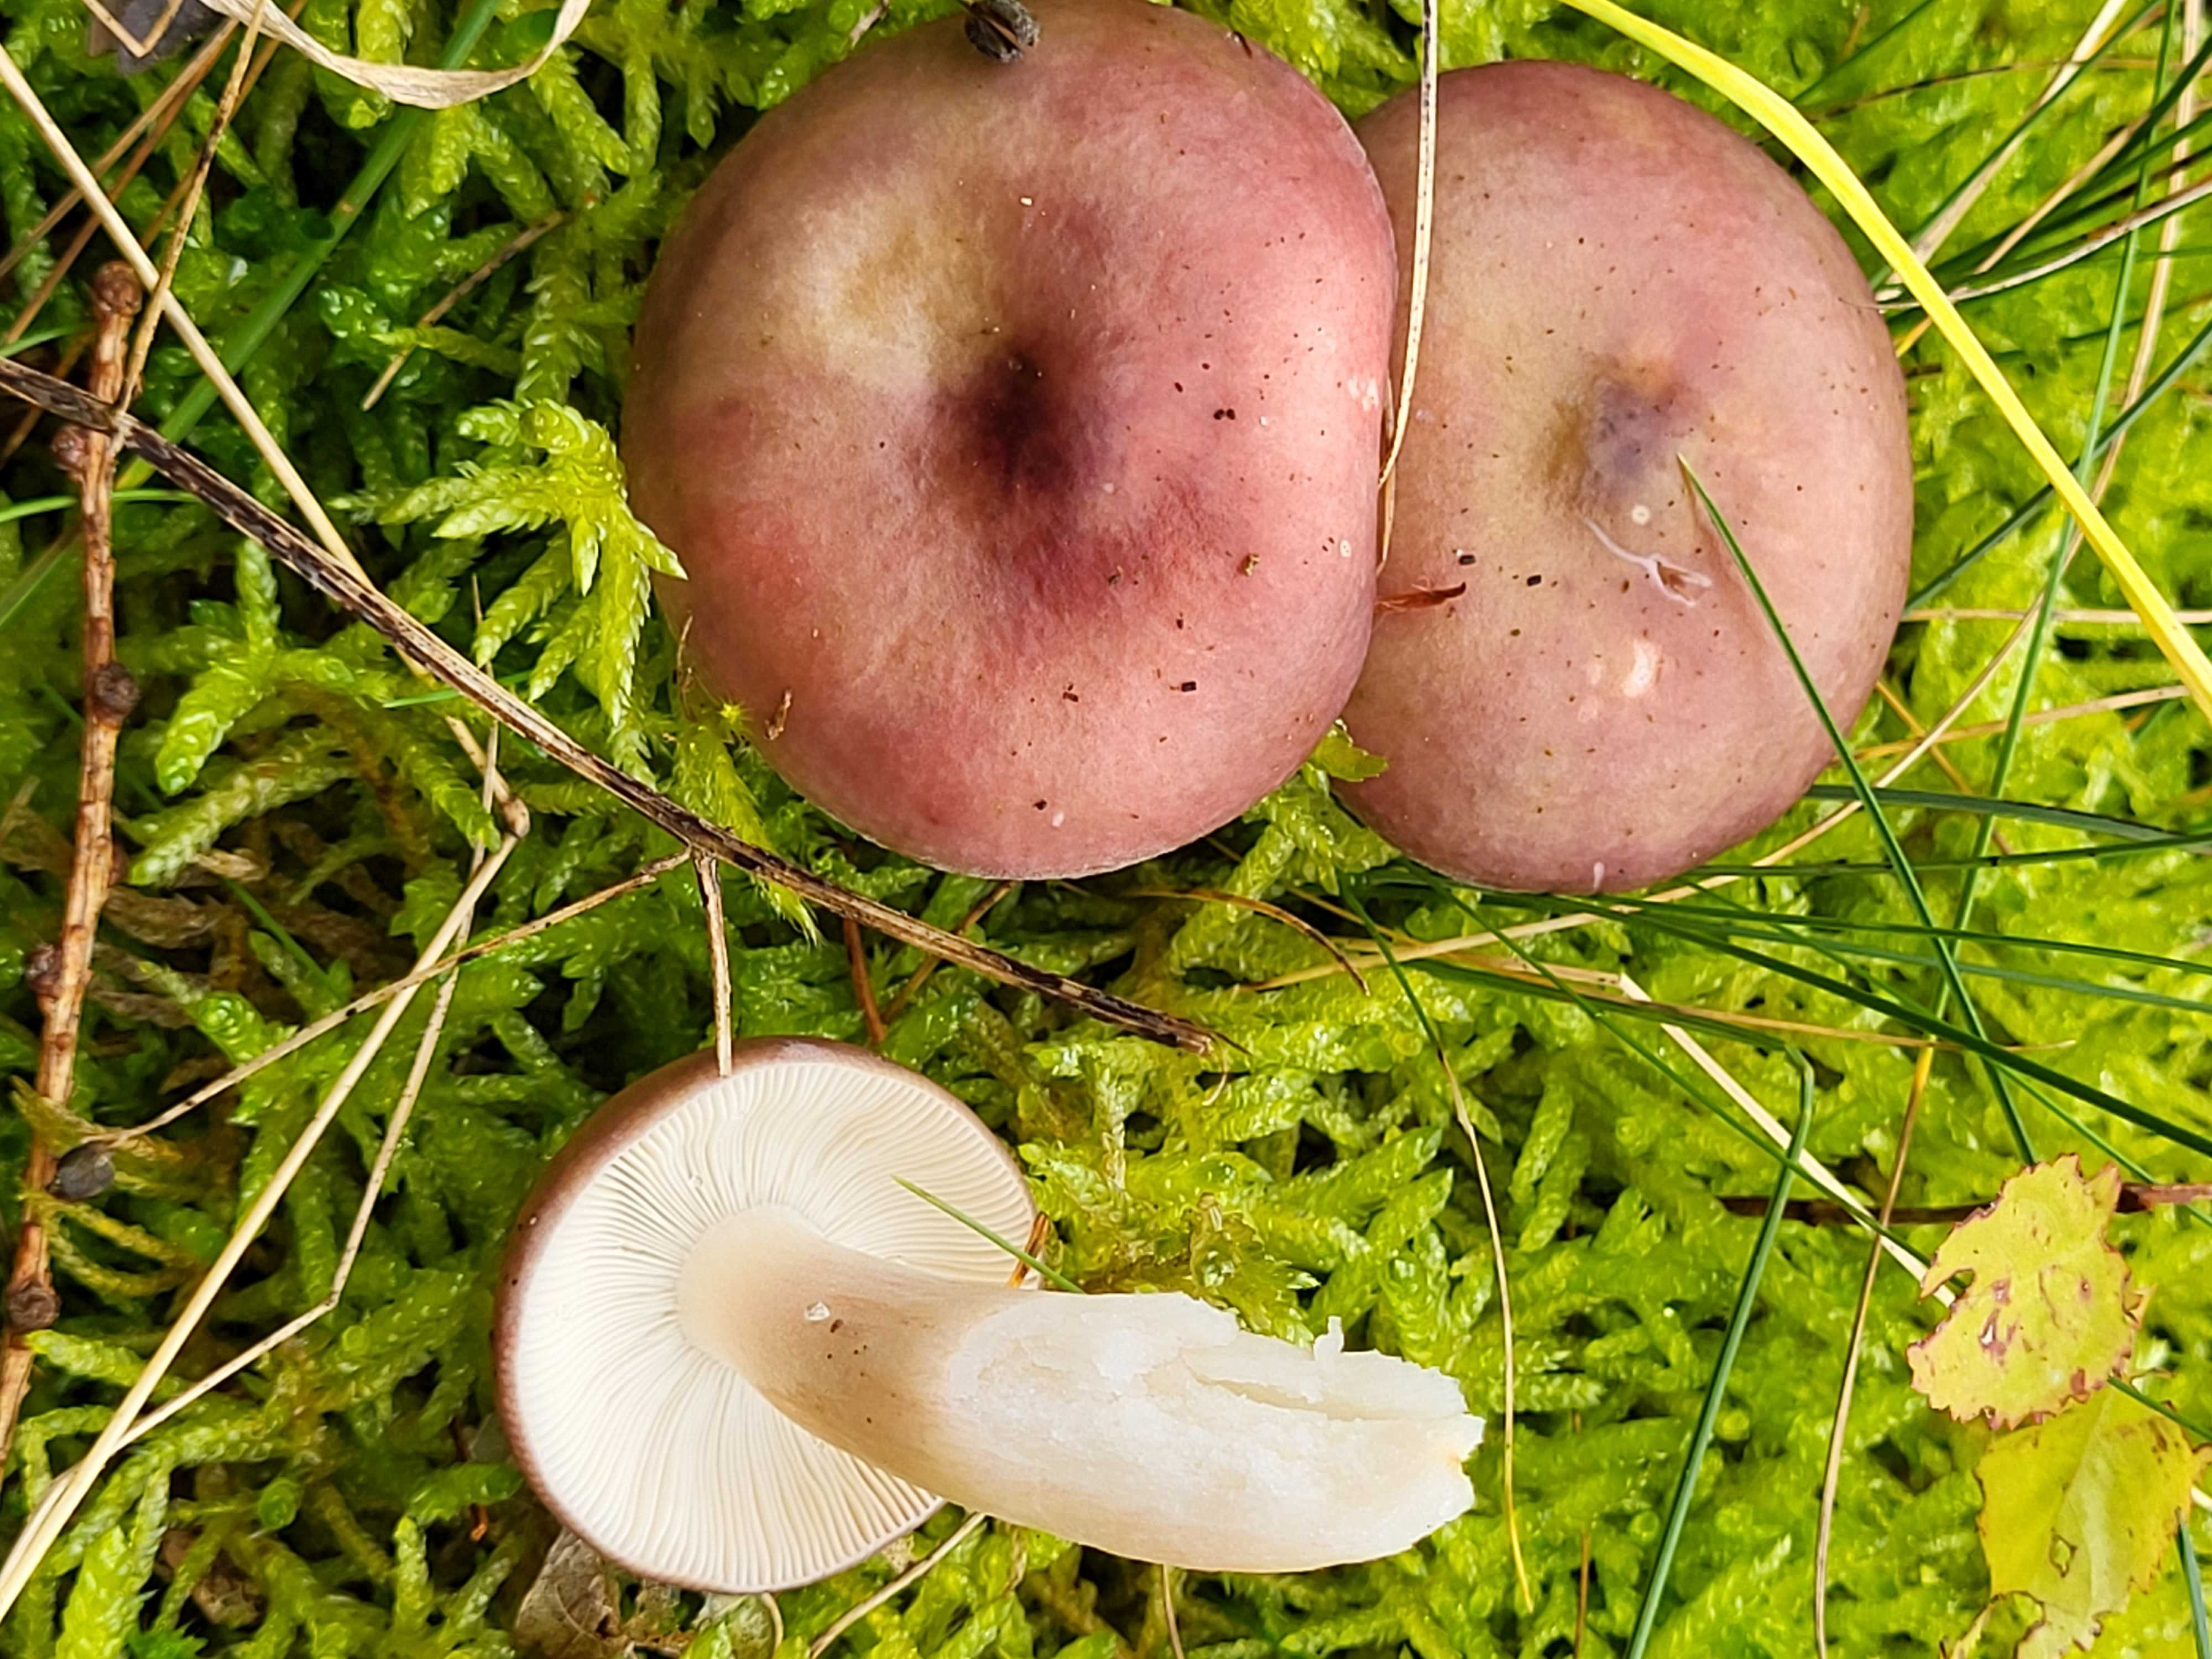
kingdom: Fungi
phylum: Basidiomycota
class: Agaricomycetes
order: Russulales
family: Russulaceae
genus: Russula
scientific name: Russula
